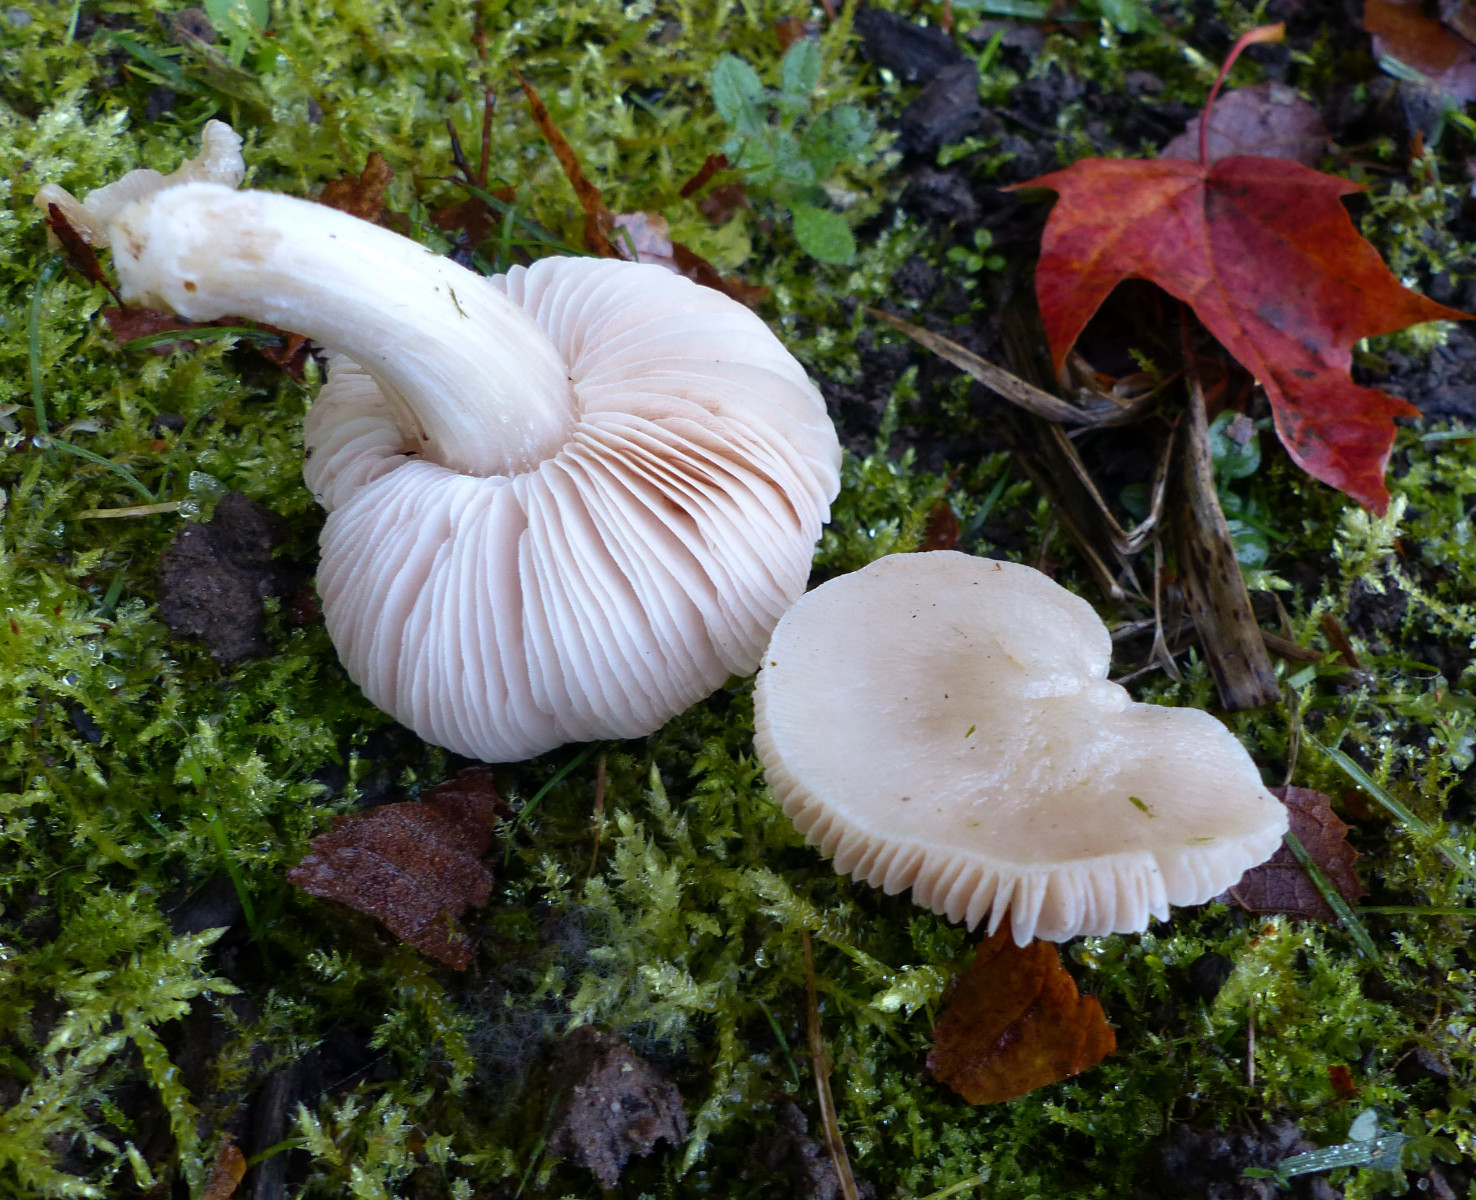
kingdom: Fungi
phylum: Basidiomycota
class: Agaricomycetes
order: Agaricales
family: Entolomataceae
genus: Entoloma
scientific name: Entoloma
